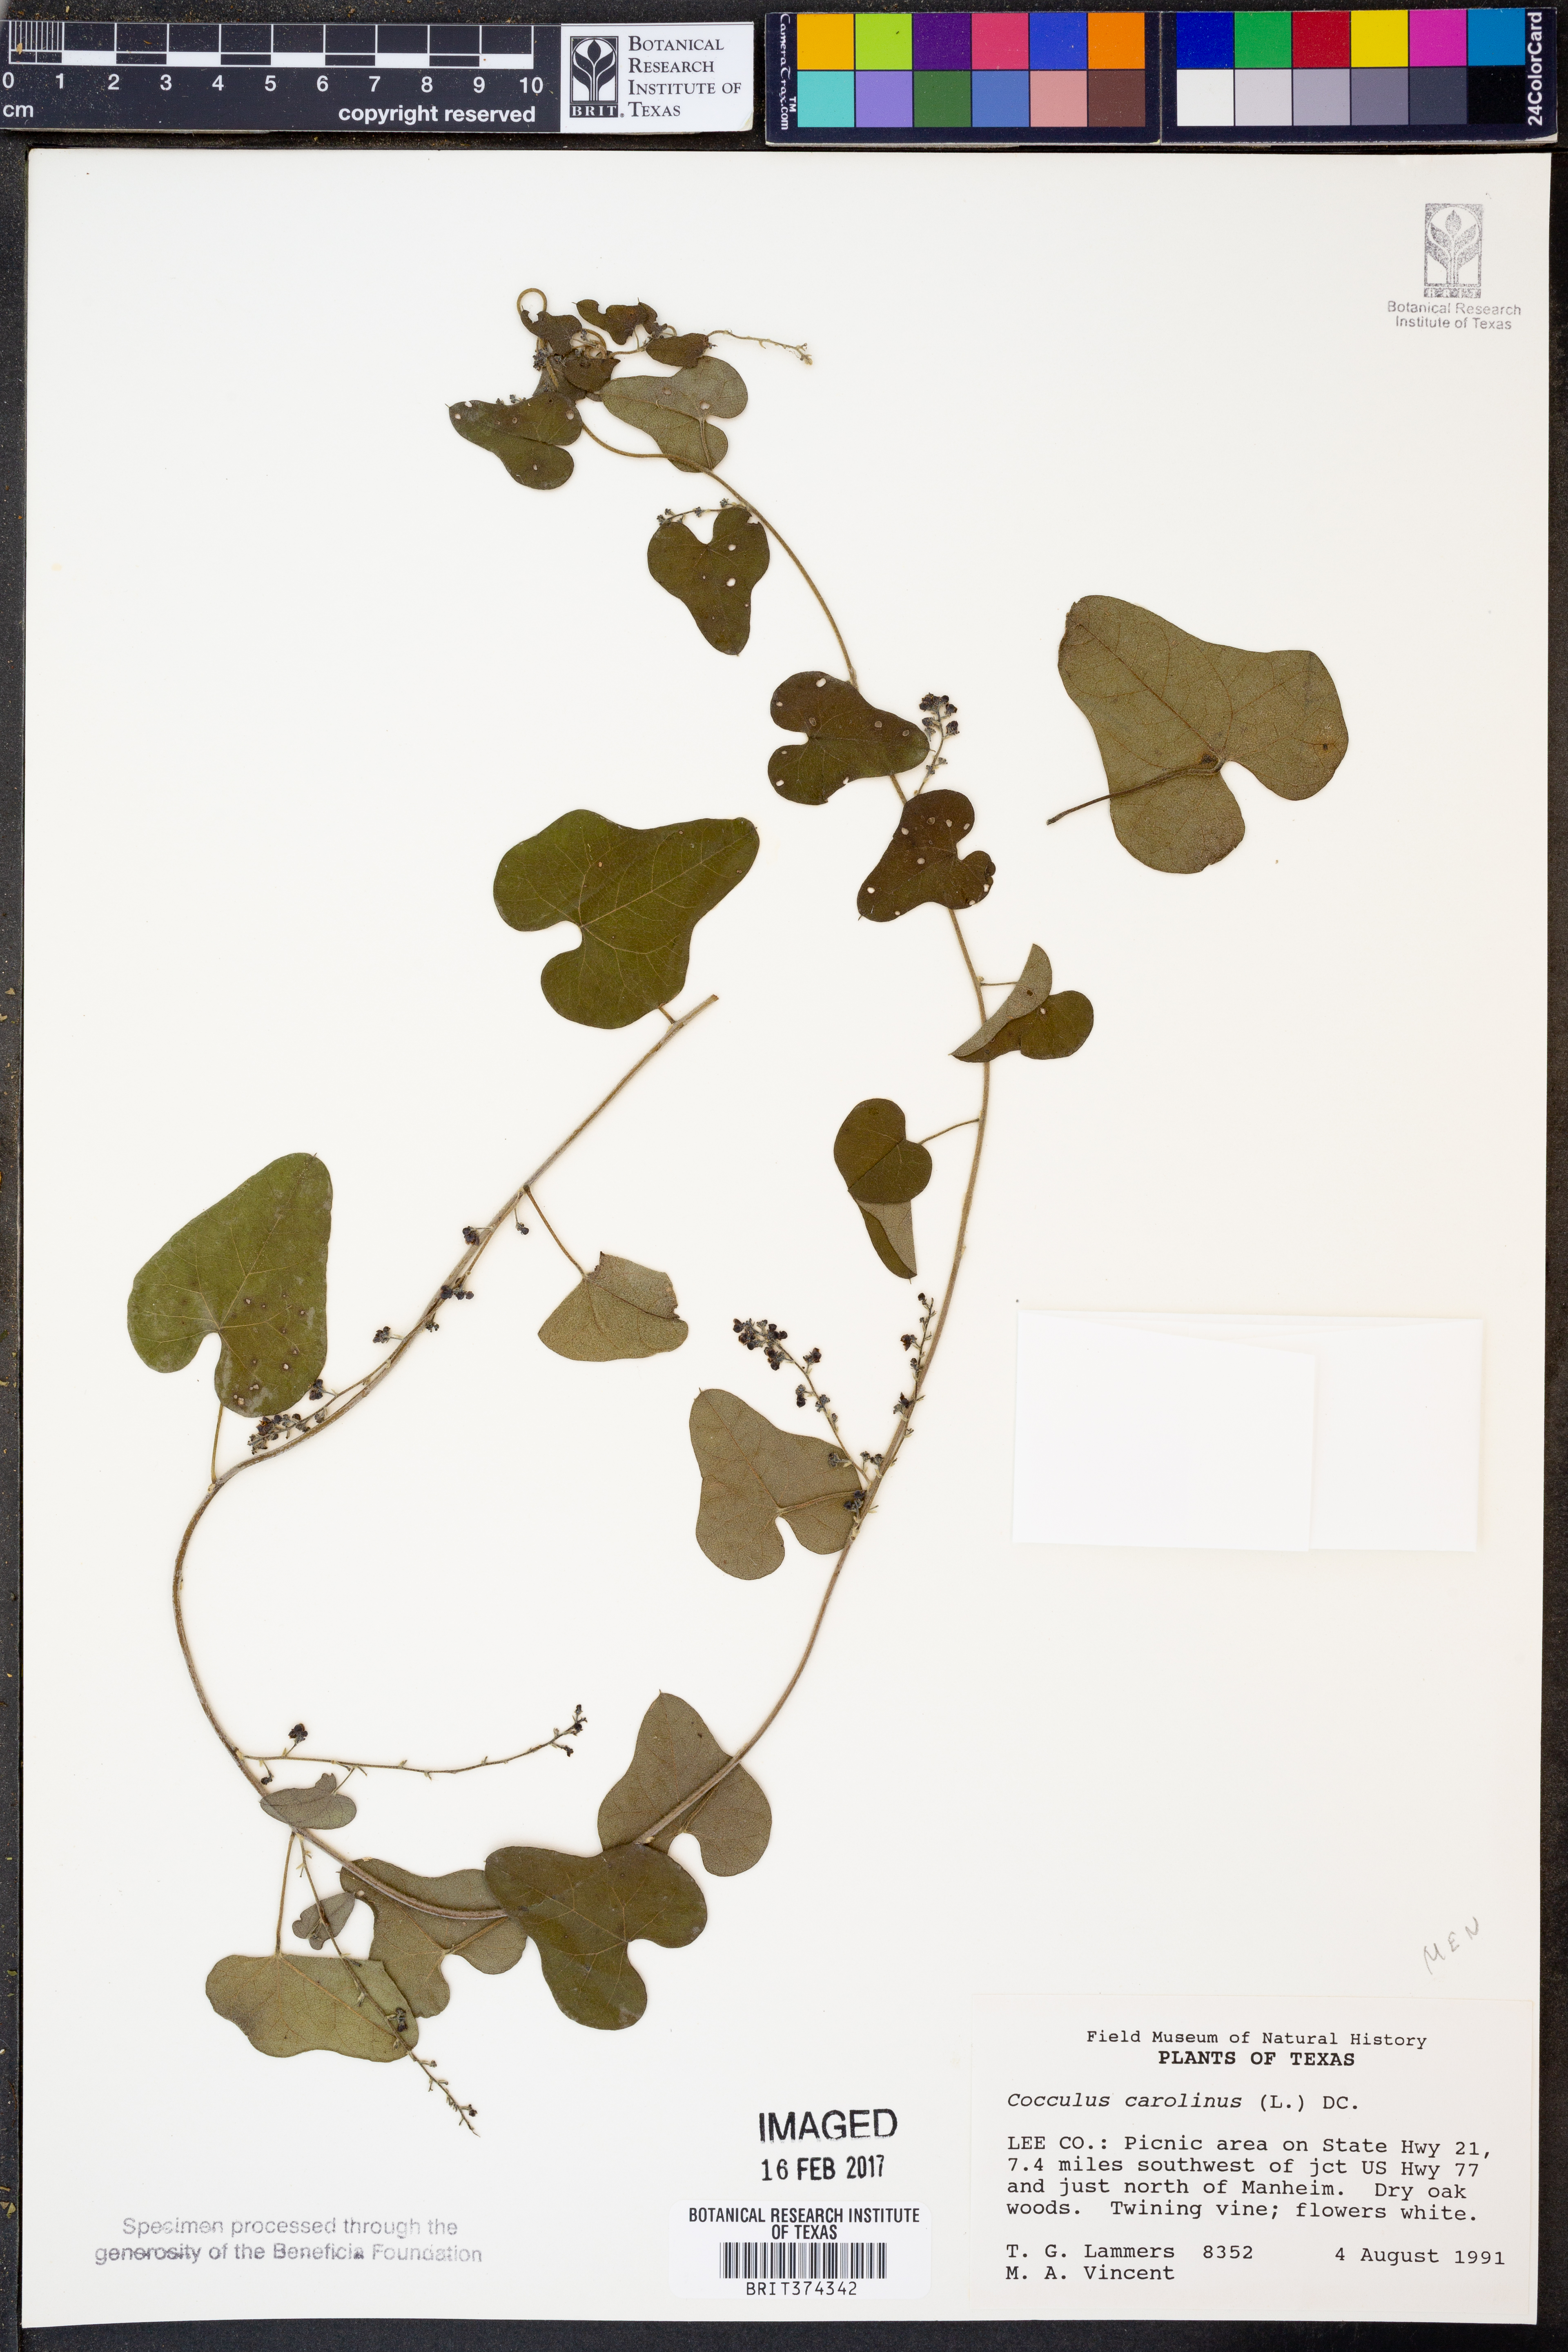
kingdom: Plantae
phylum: Tracheophyta
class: Magnoliopsida
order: Ranunculales
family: Menispermaceae
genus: Cocculus
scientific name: Cocculus carolinus
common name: Carolina moonseed
